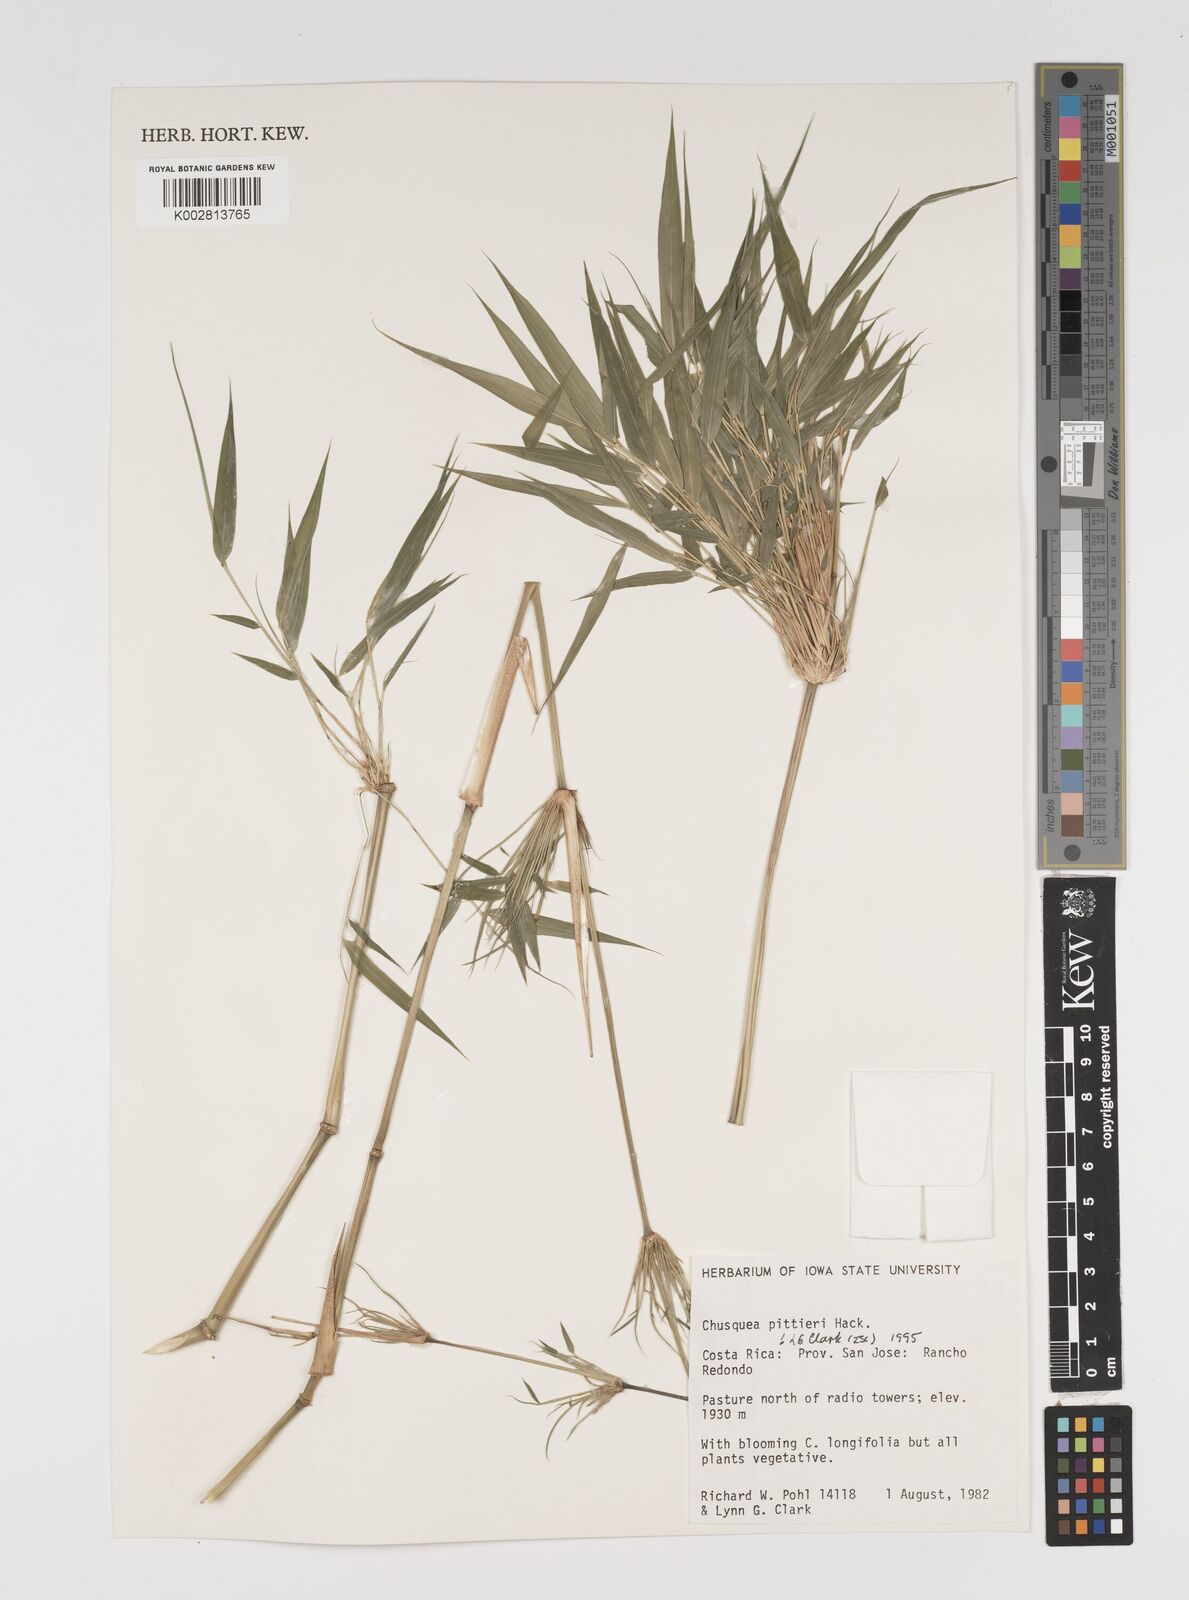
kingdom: Plantae
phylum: Tracheophyta
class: Liliopsida
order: Poales
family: Poaceae
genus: Chusquea
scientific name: Chusquea pittieri
